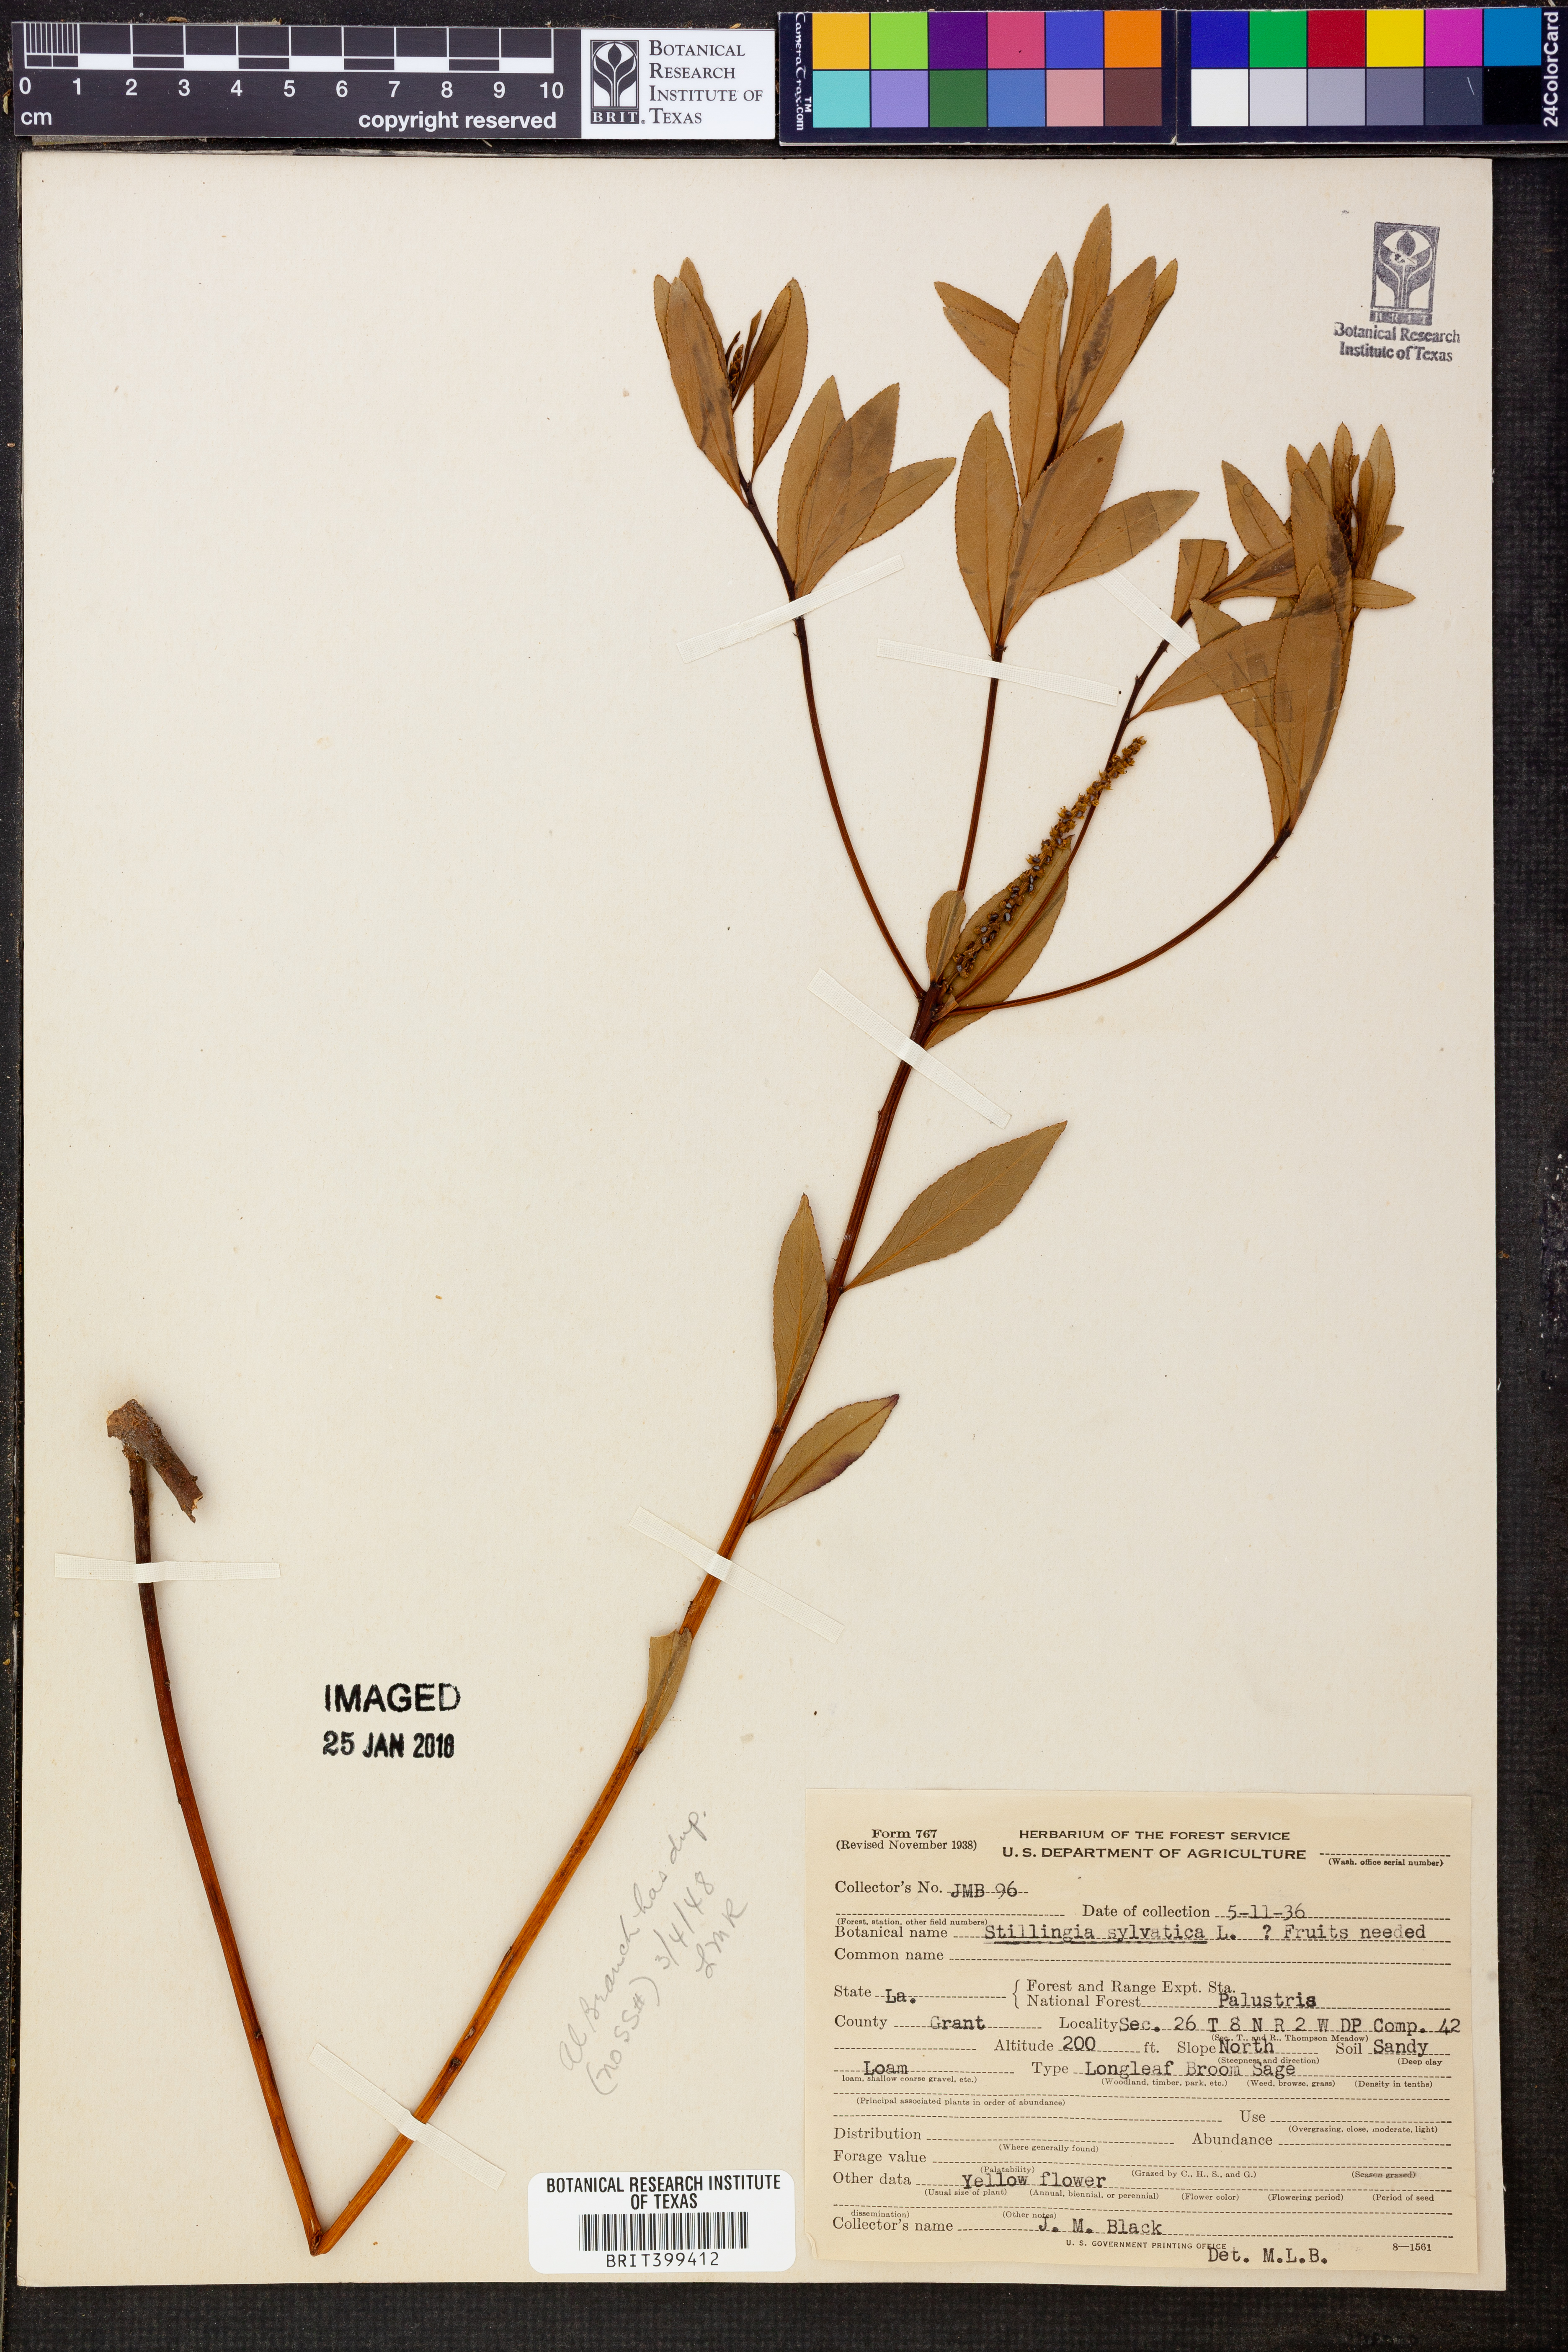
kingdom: Plantae
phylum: Tracheophyta
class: Magnoliopsida
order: Malpighiales
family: Euphorbiaceae
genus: Stillingia
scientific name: Stillingia sylvatica
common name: Queen's-delight
